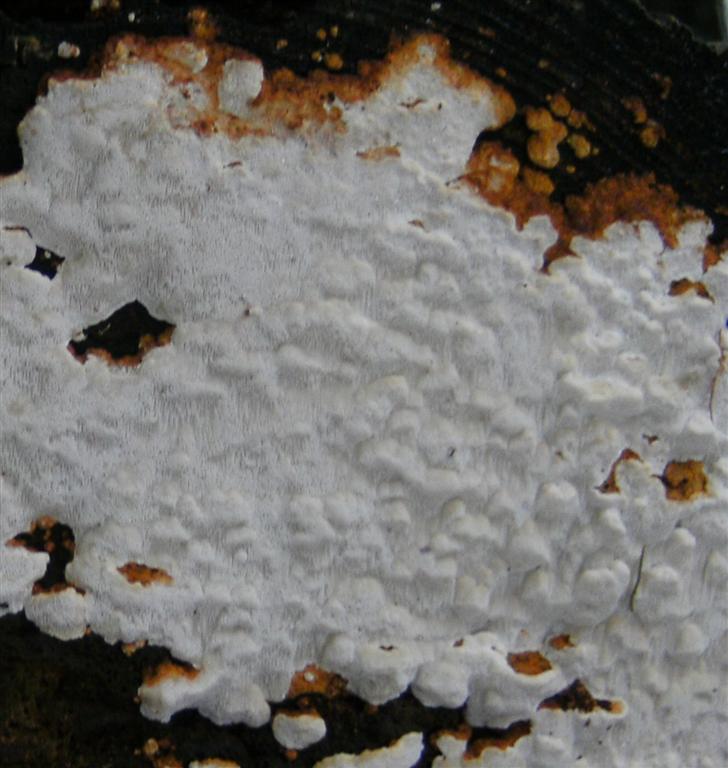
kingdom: Fungi
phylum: Basidiomycota
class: Agaricomycetes
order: Polyporales
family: Fomitopsidaceae
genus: Neoantrodia
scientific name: Neoantrodia serialis
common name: række-sejporesvamp
